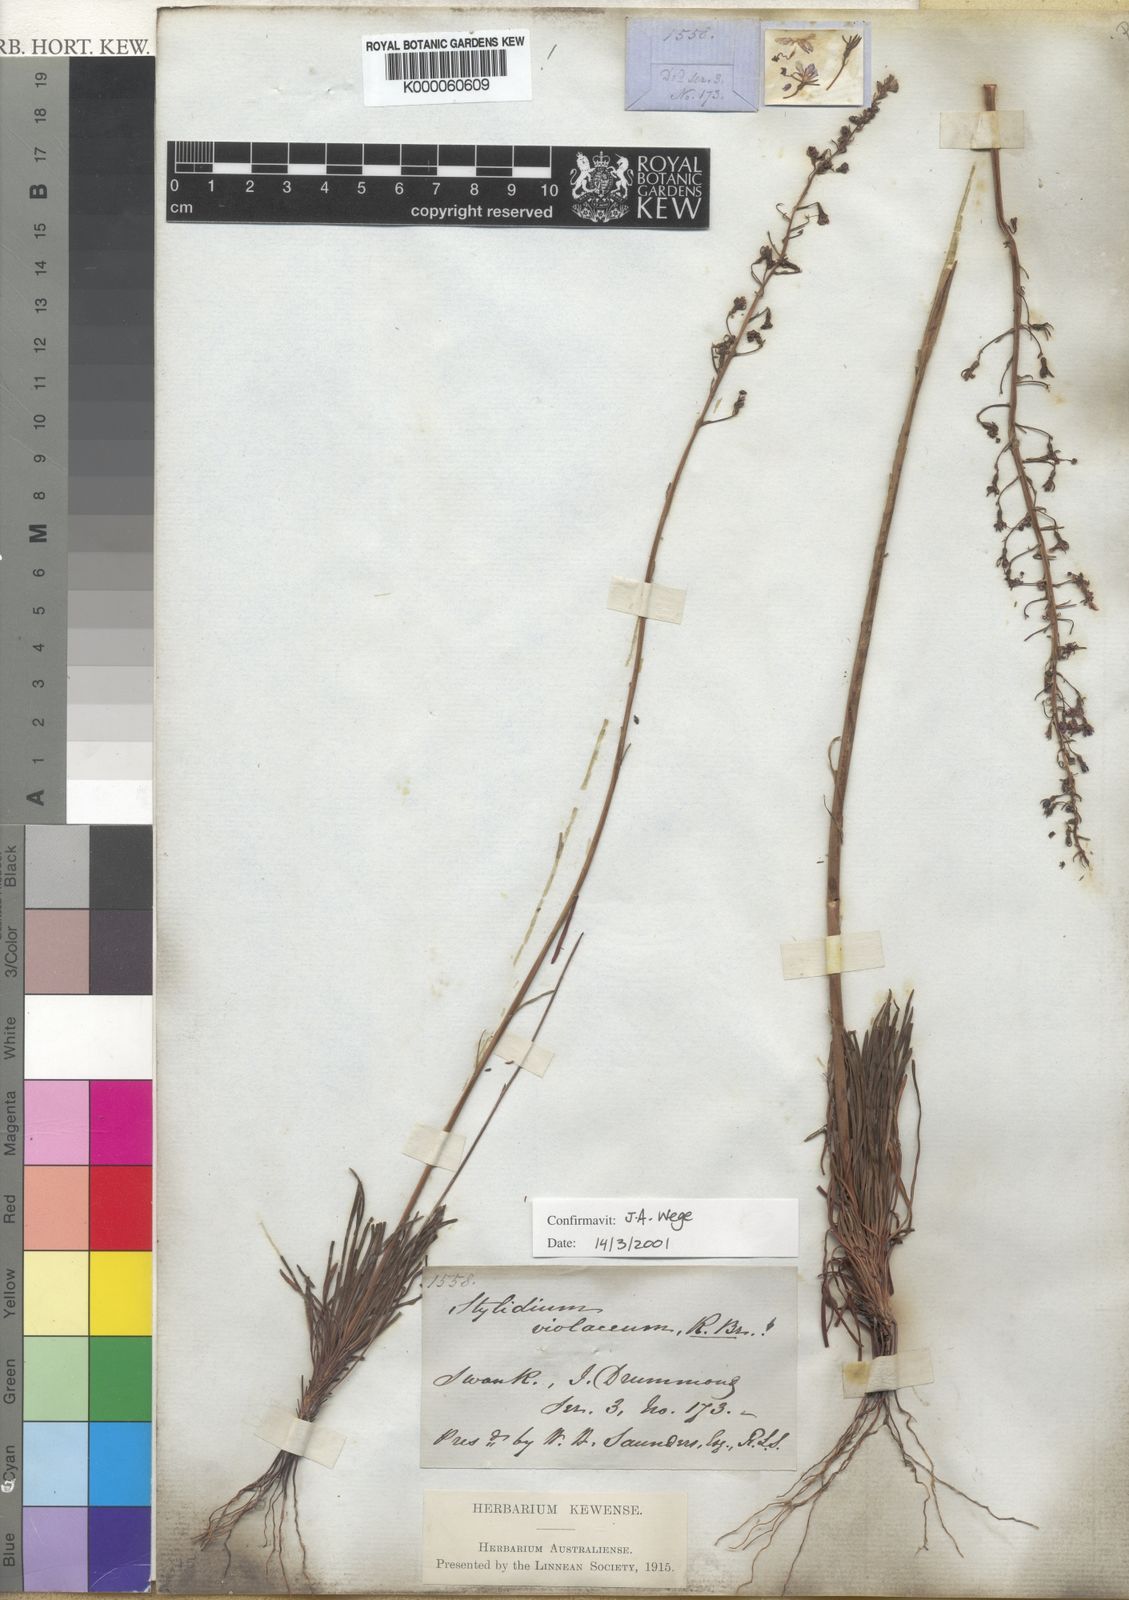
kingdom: Plantae
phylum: Tracheophyta
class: Magnoliopsida
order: Asterales
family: Stylidiaceae
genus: Stylidium
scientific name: Stylidium violaceum
